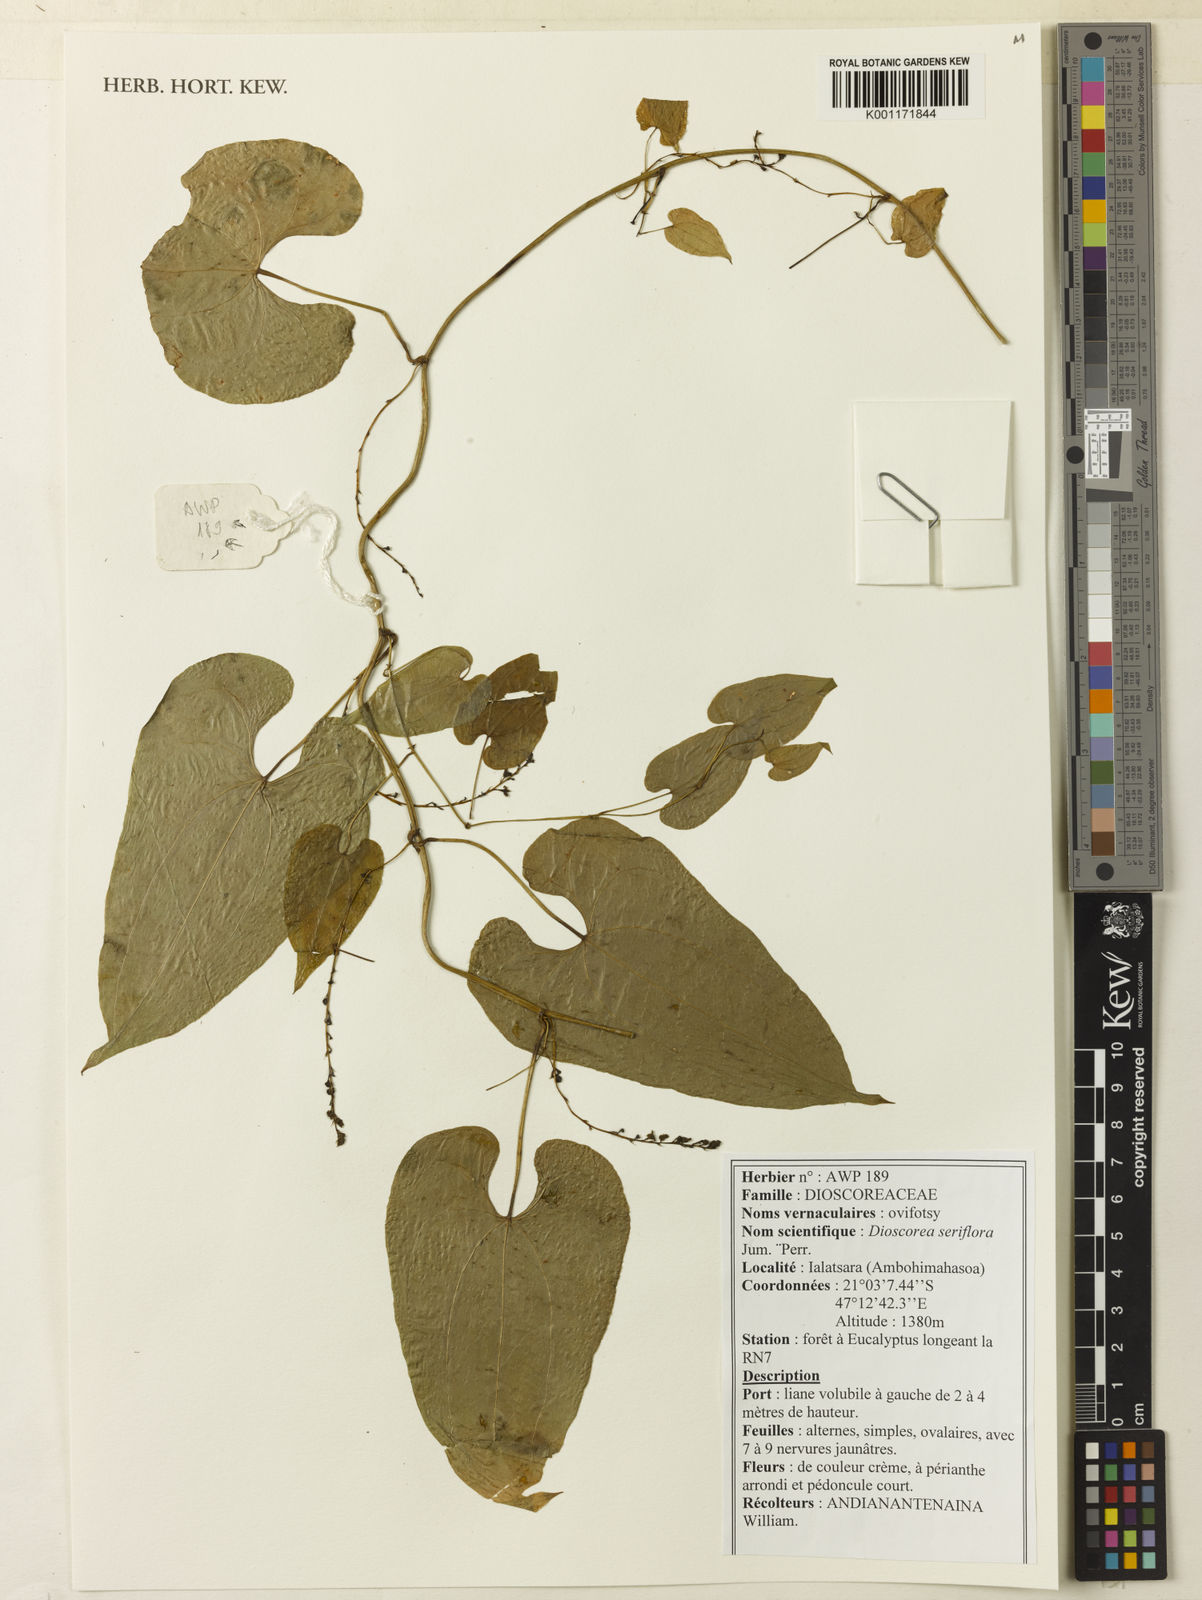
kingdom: Plantae
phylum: Tracheophyta
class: Liliopsida
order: Dioscoreales
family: Dioscoreaceae
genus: Dioscorea
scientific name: Dioscorea seriflora
